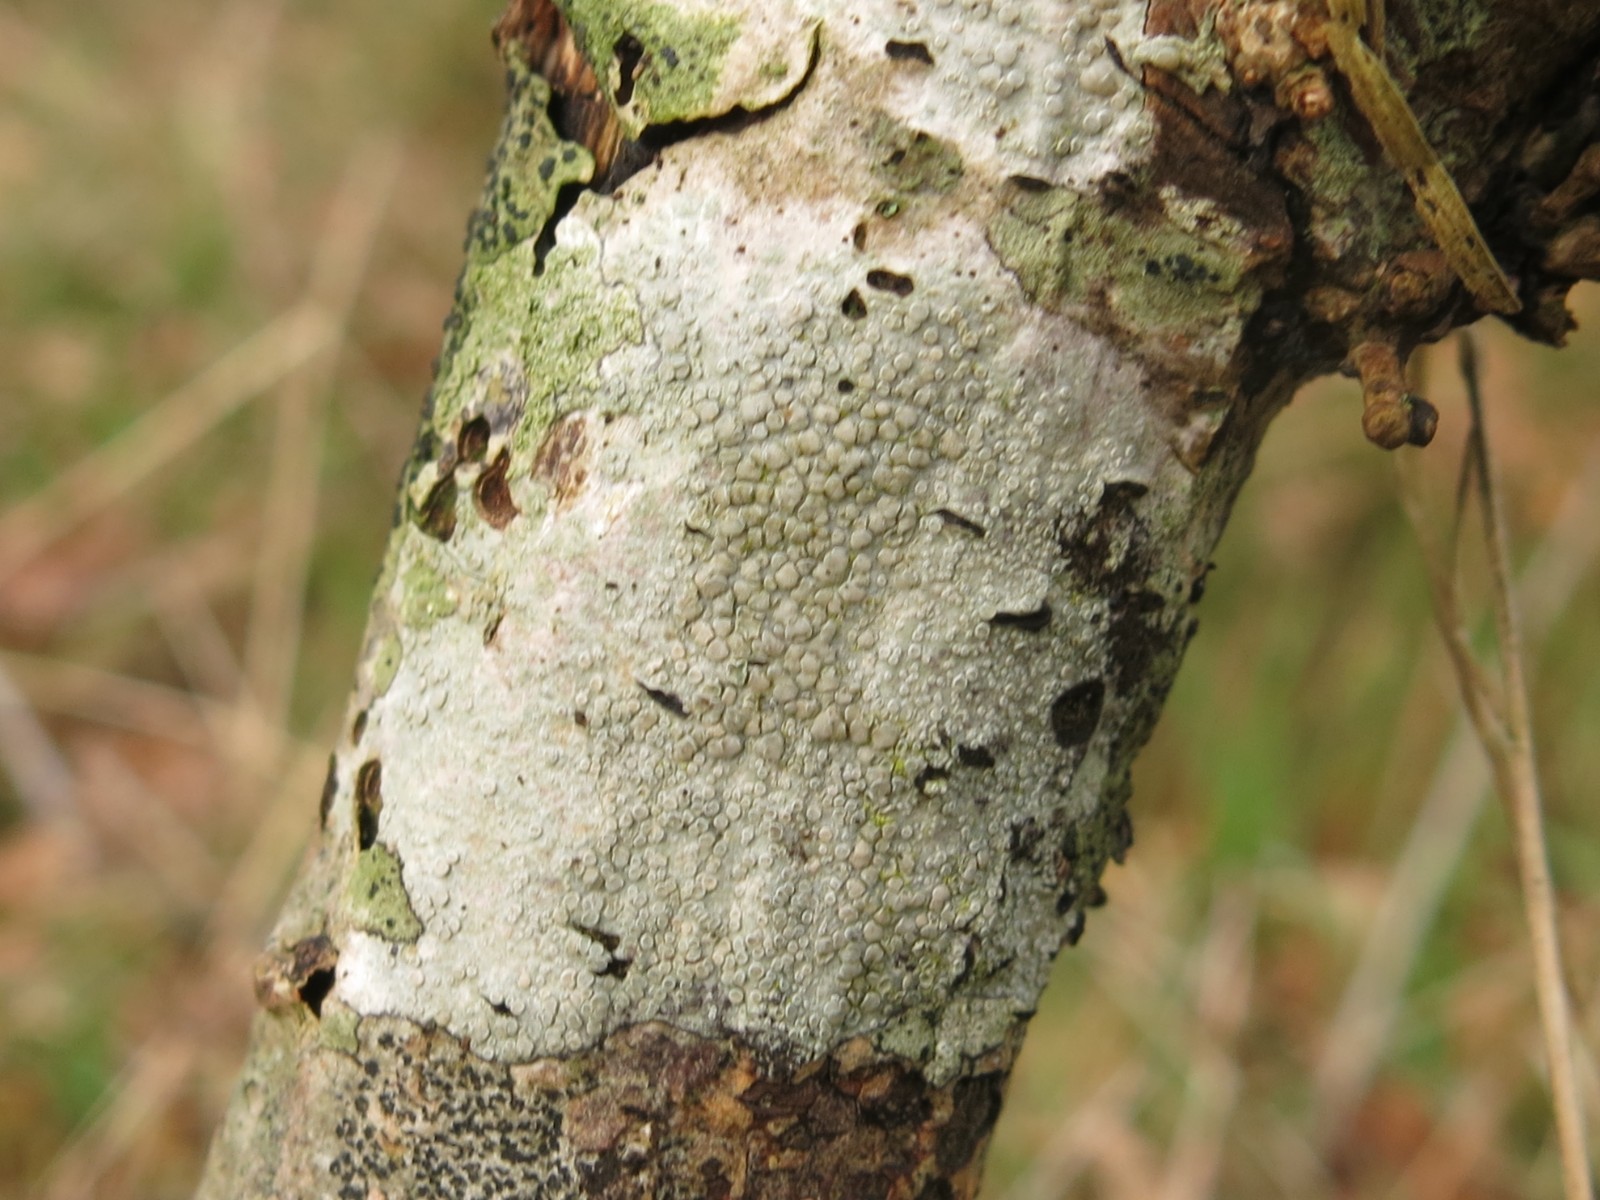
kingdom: Fungi
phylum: Ascomycota
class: Lecanoromycetes
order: Lecanorales
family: Lecanoraceae
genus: Glaucomaria
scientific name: Glaucomaria carpinea
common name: hviddugget kantskivelav
